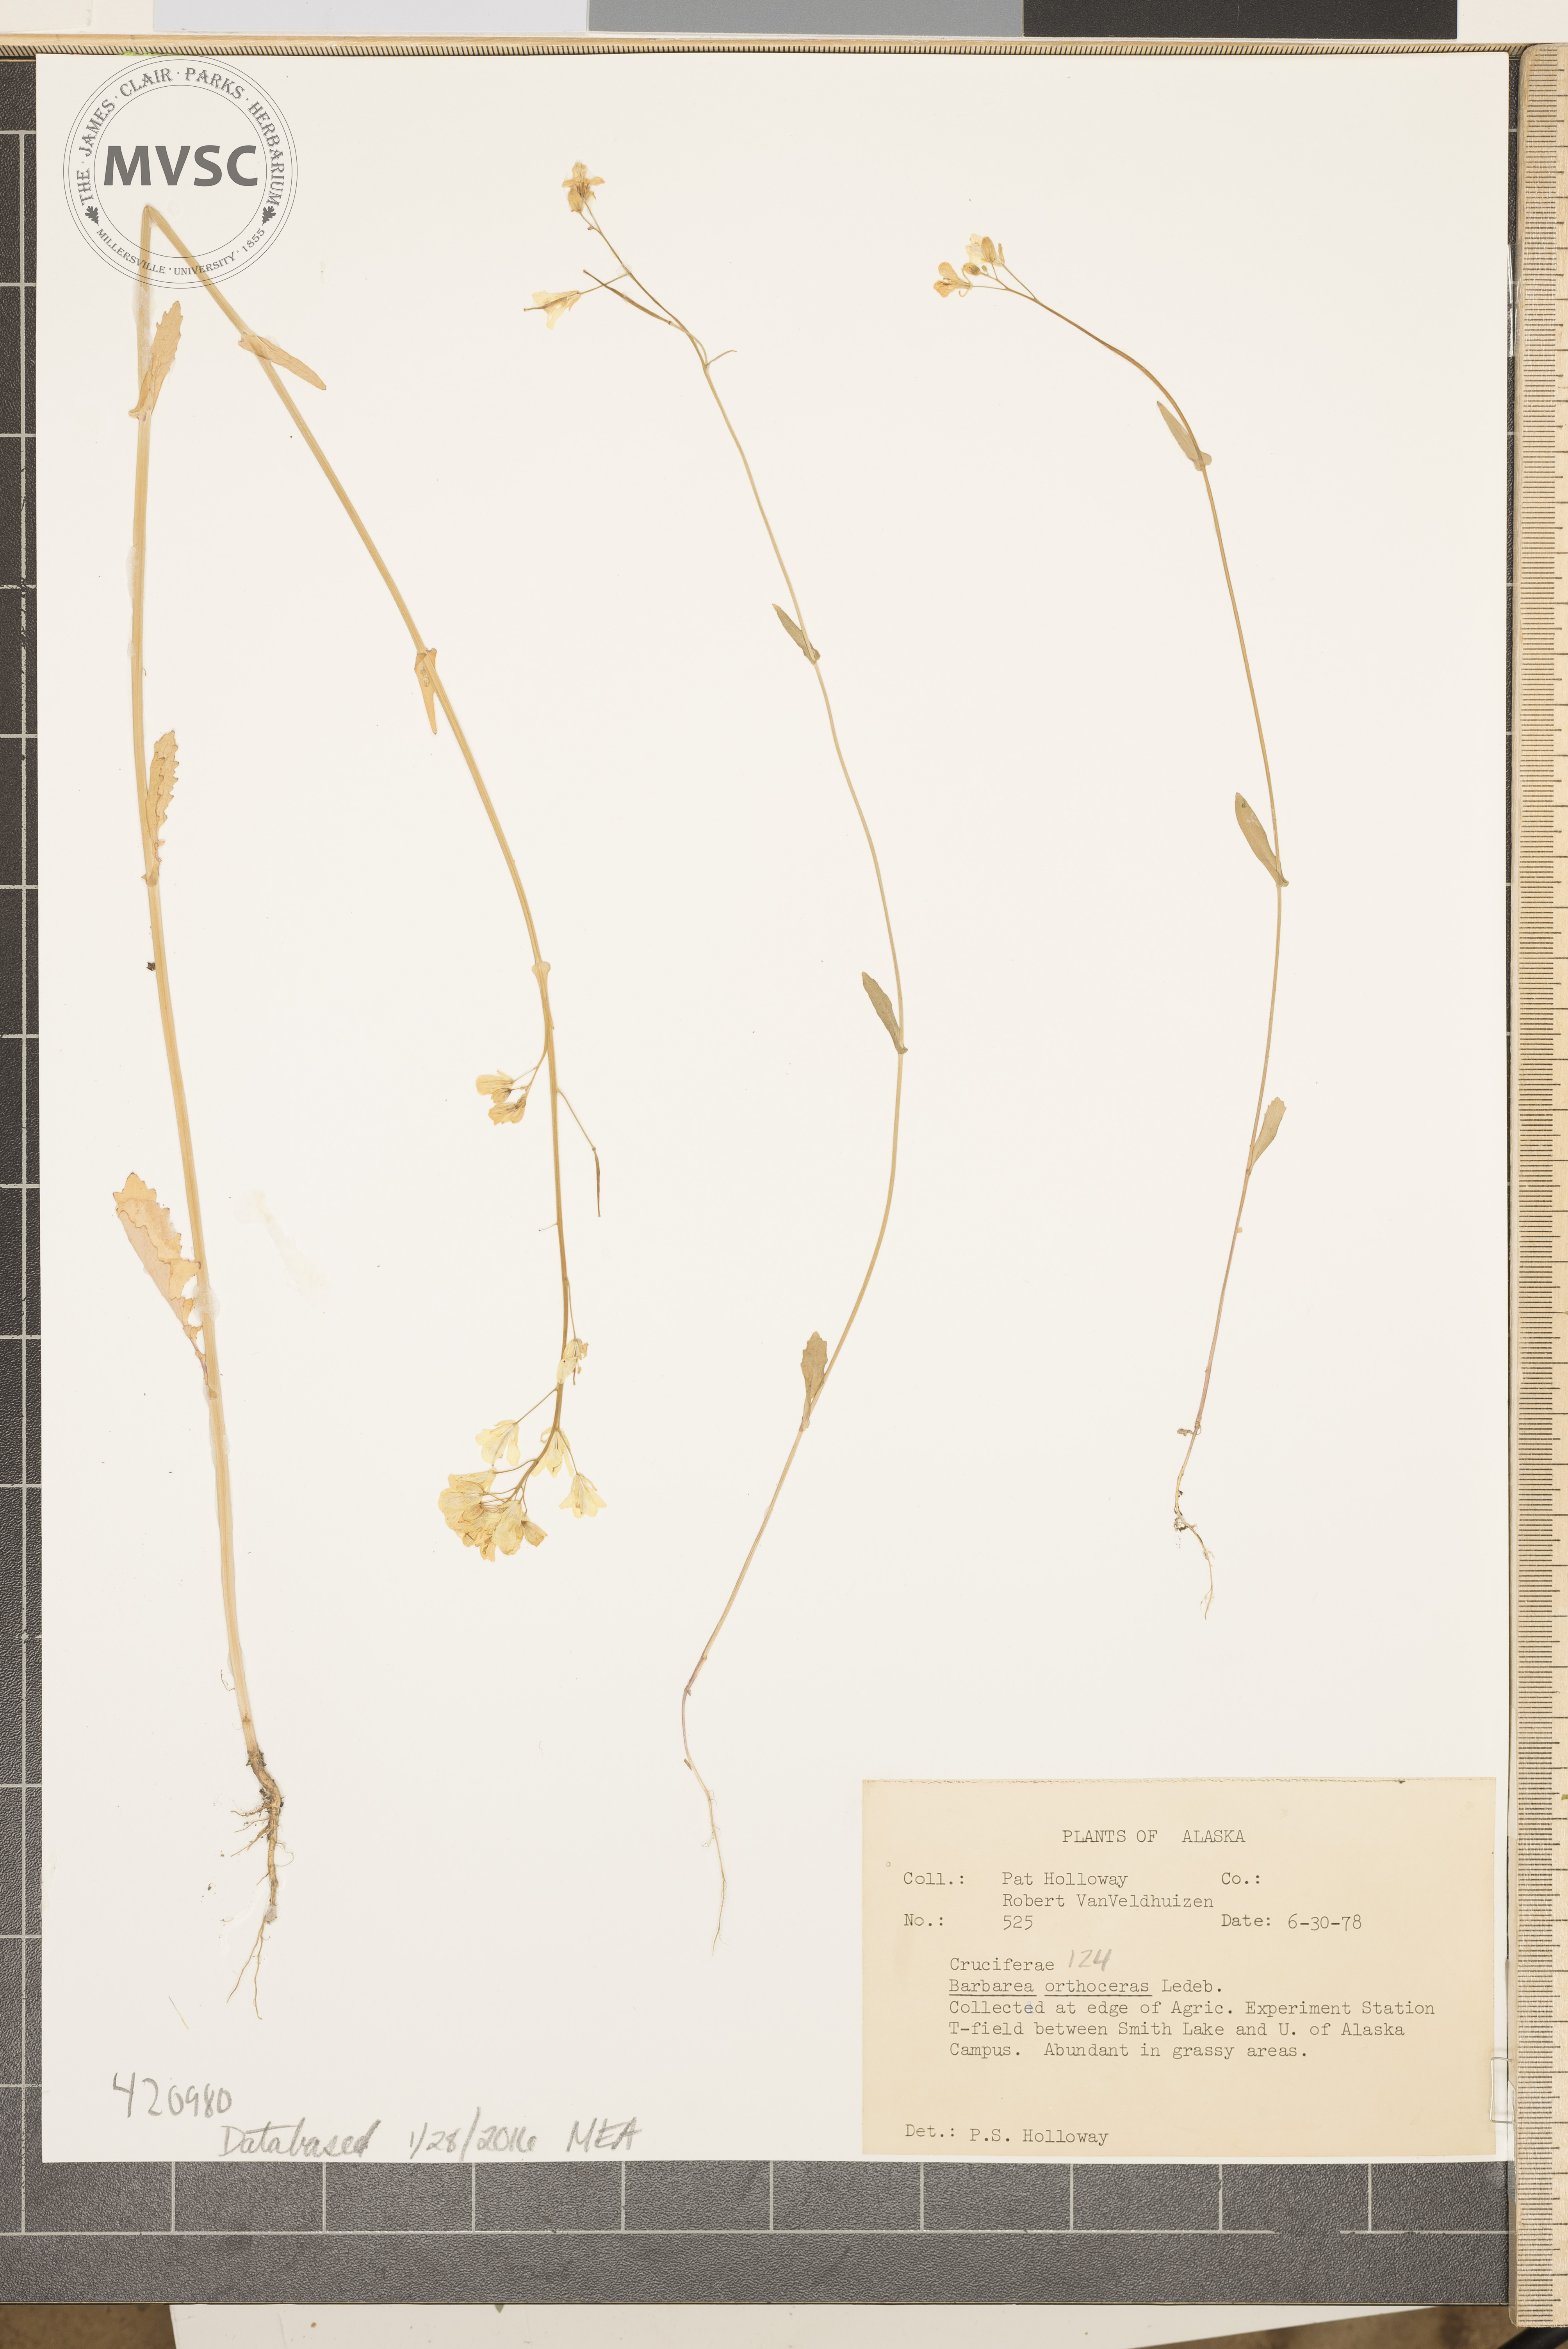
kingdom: Plantae
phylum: Tracheophyta
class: Magnoliopsida
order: Brassicales
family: Brassicaceae
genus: Barbarea
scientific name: Barbarea orthoceras
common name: American yellowrocket
